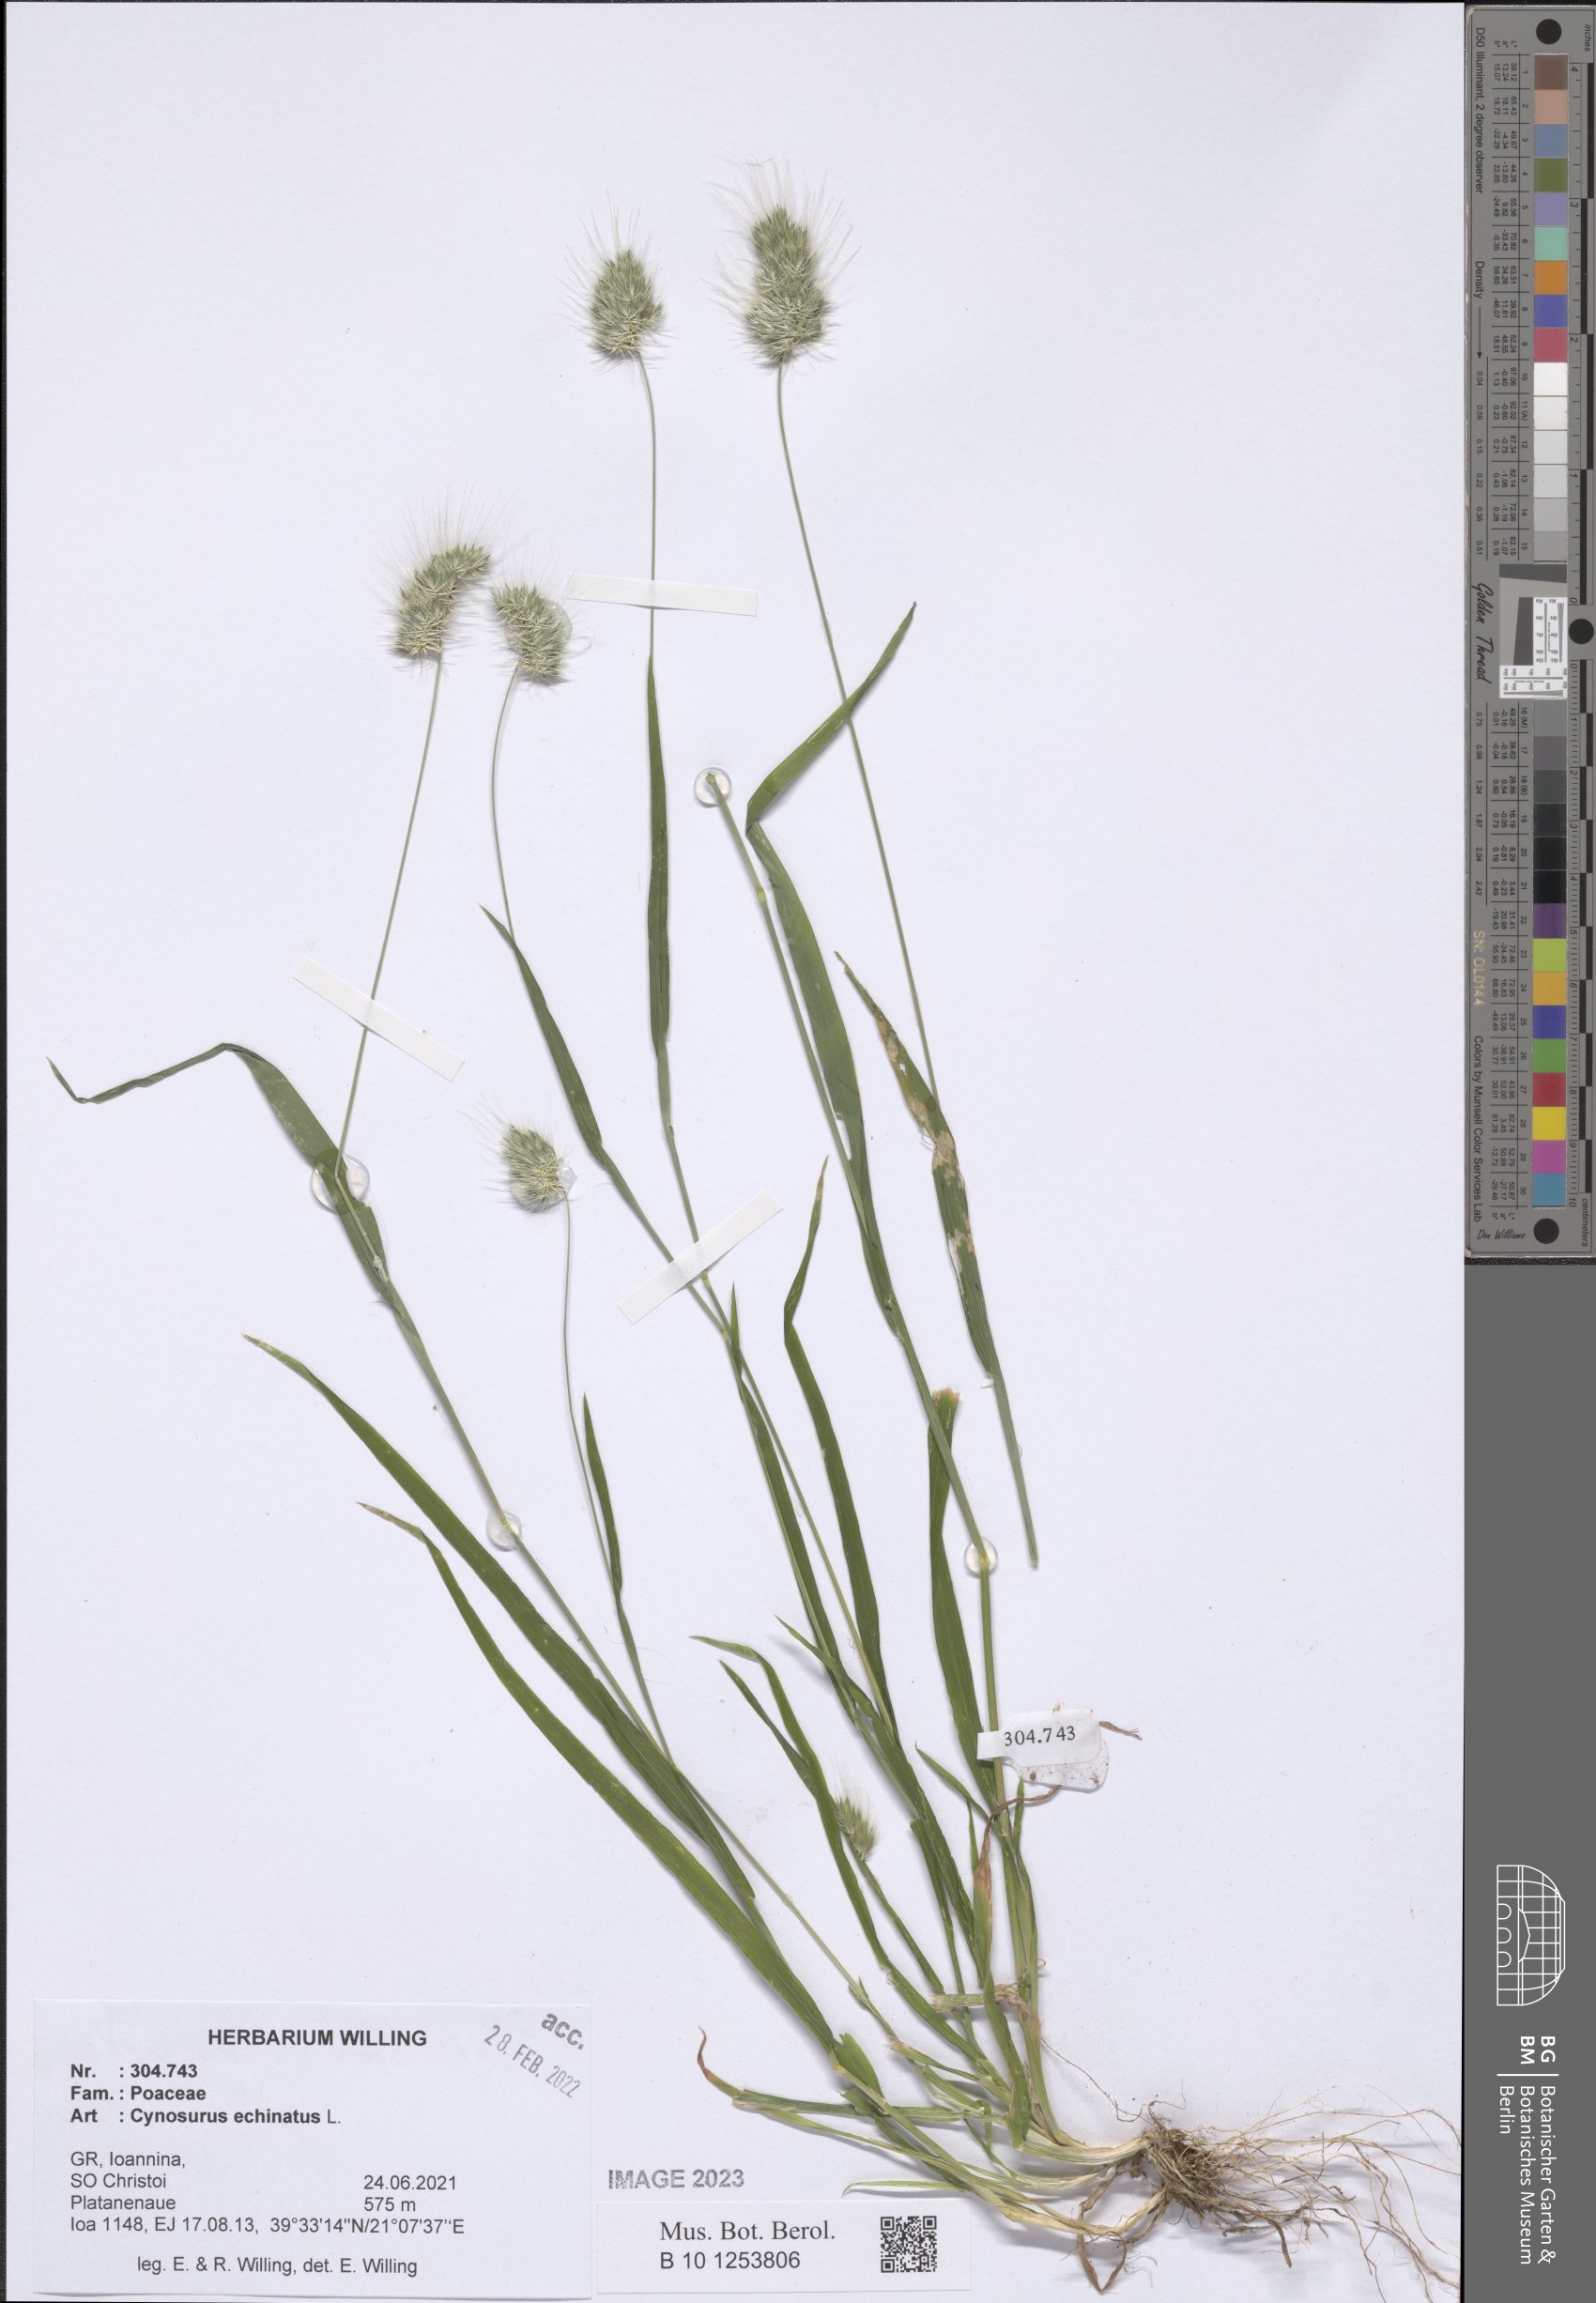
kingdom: Plantae
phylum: Tracheophyta
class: Liliopsida
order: Poales
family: Poaceae
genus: Cynosurus
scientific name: Cynosurus echinatus
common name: Rough dog's-tail
